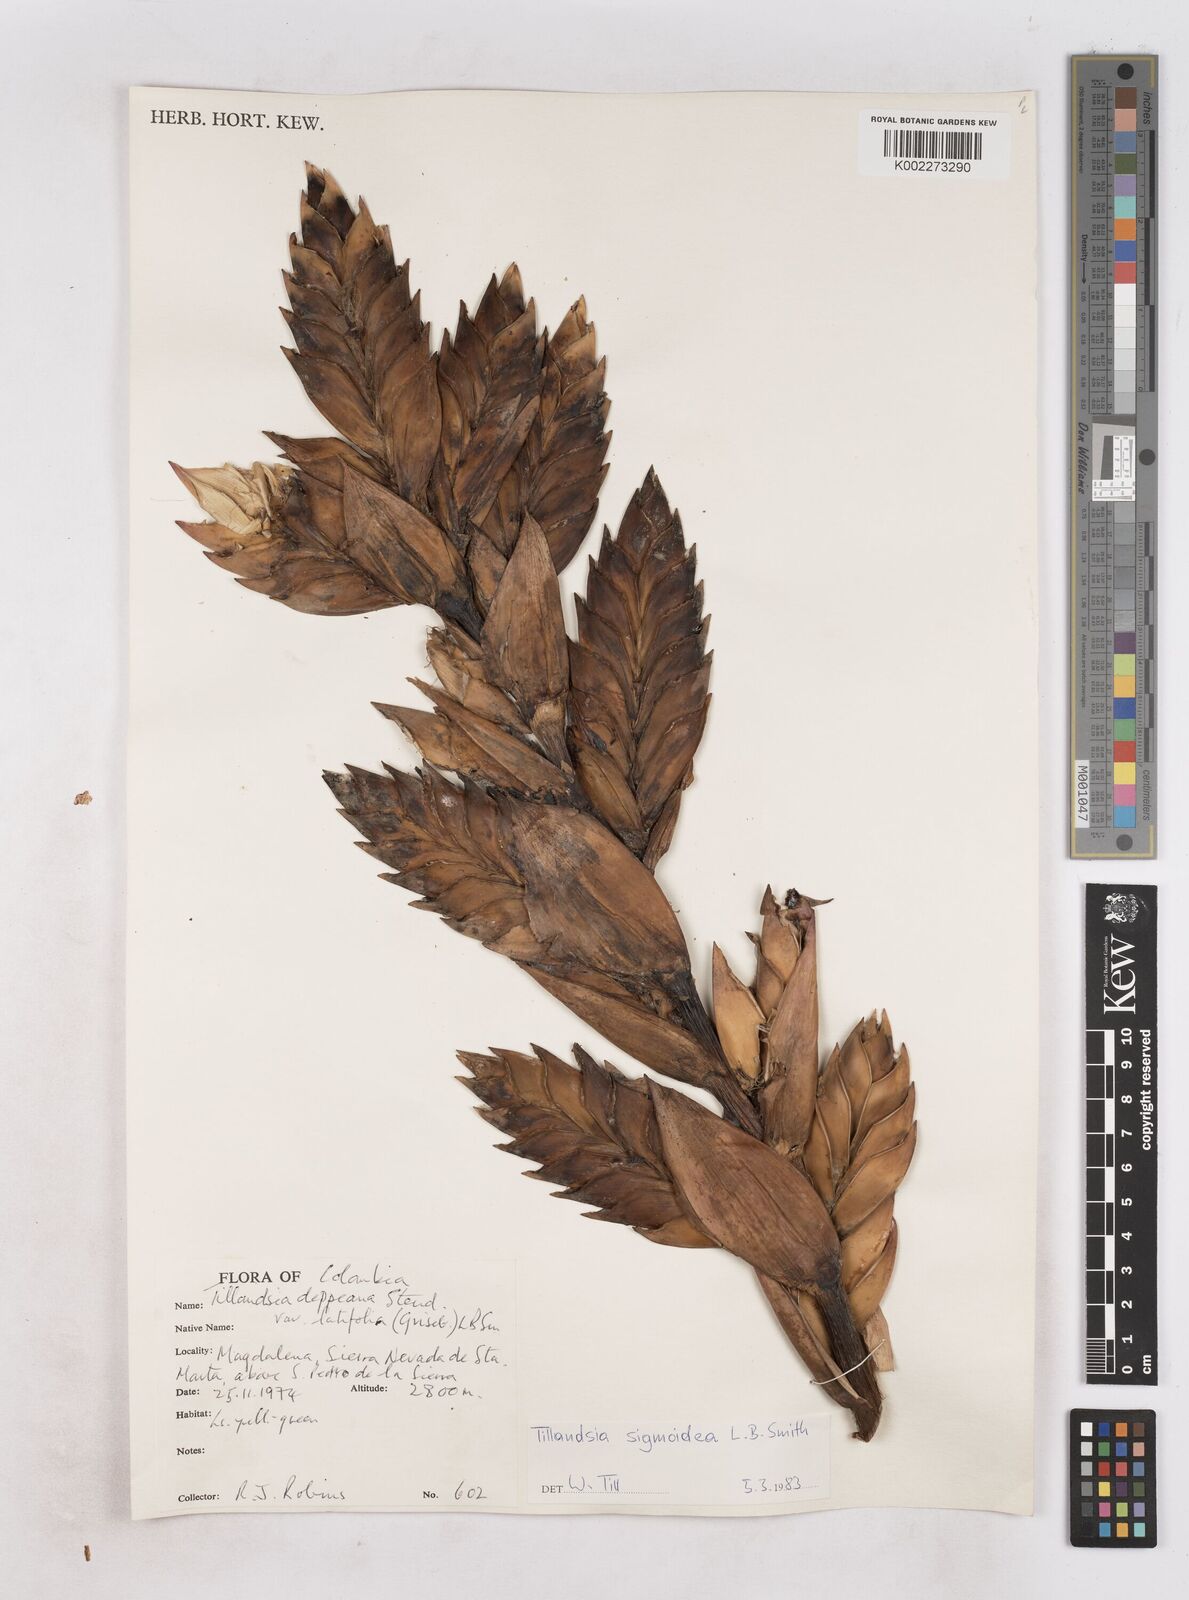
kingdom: Plantae
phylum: Tracheophyta
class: Liliopsida
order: Poales
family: Bromeliaceae
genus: Tillandsia
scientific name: Tillandsia sigmoidea
